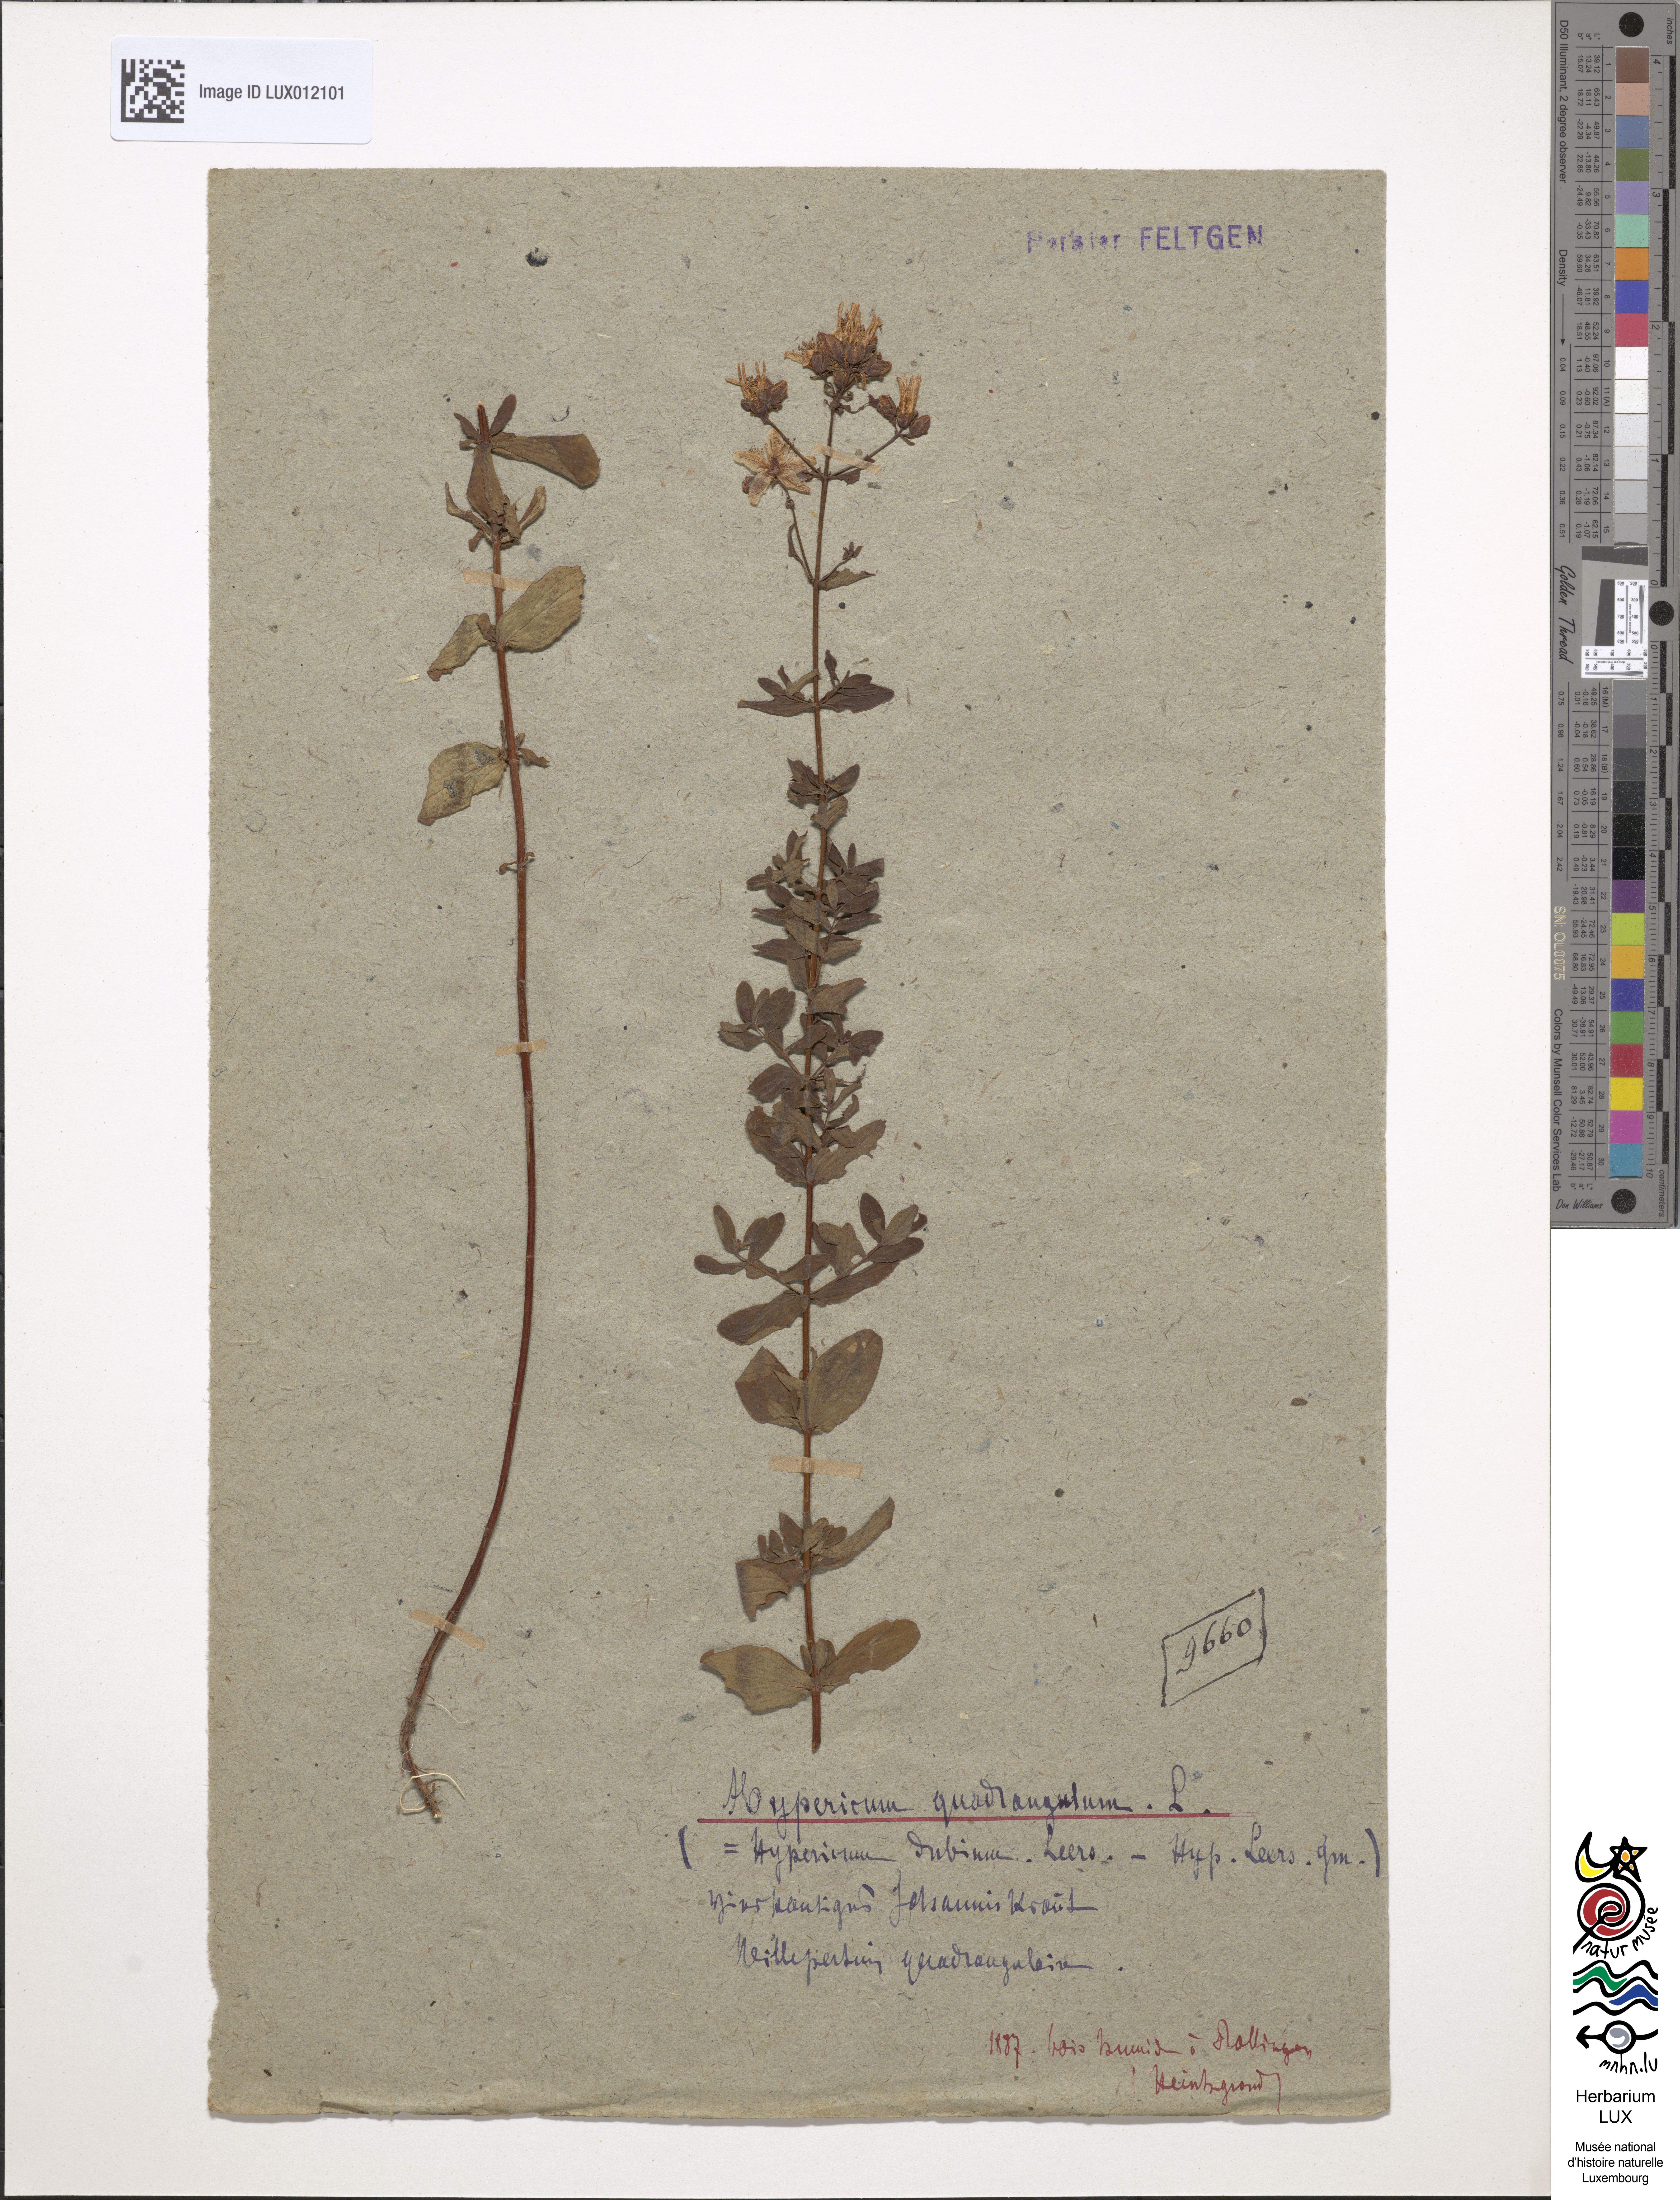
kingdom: Plantae
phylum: Tracheophyta
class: Magnoliopsida
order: Malpighiales
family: Hypericaceae
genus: Hypericum
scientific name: Hypericum tetrapterum
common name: Square-stalked st. john's-wort
